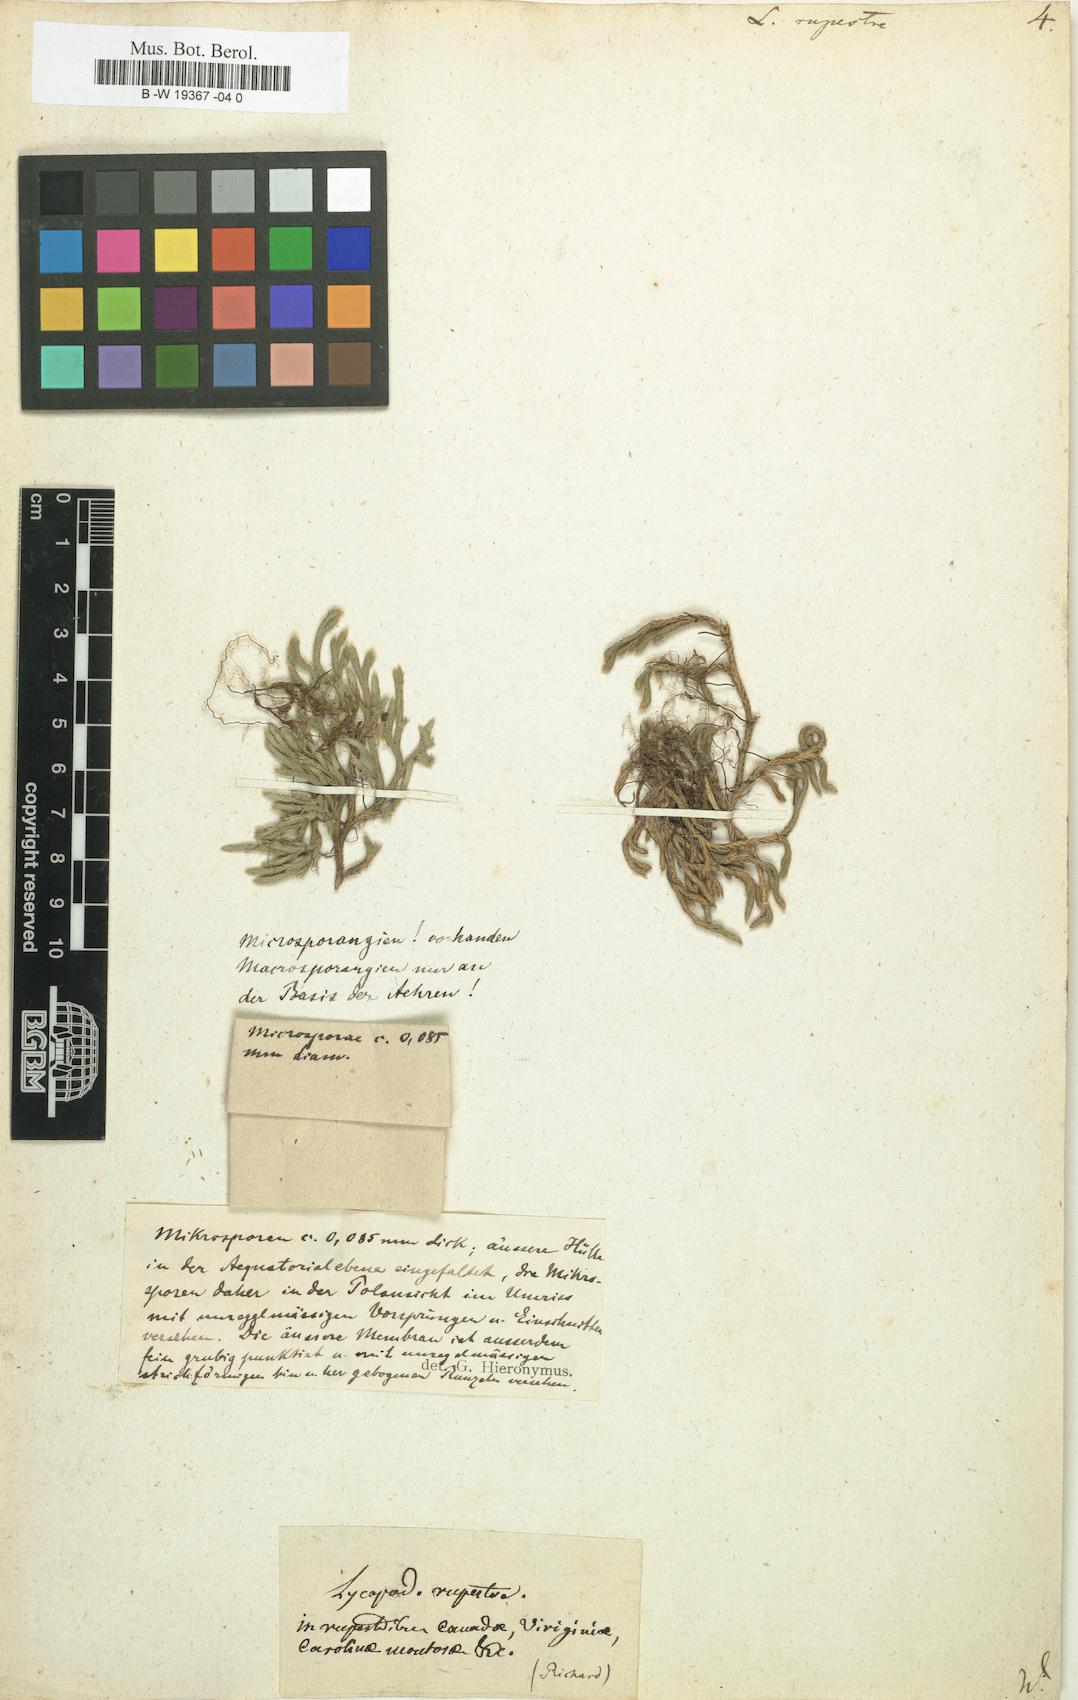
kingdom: Plantae
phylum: Tracheophyta
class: Lycopodiopsida
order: Selaginellales
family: Selaginellaceae
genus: Selaginella
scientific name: Selaginella
